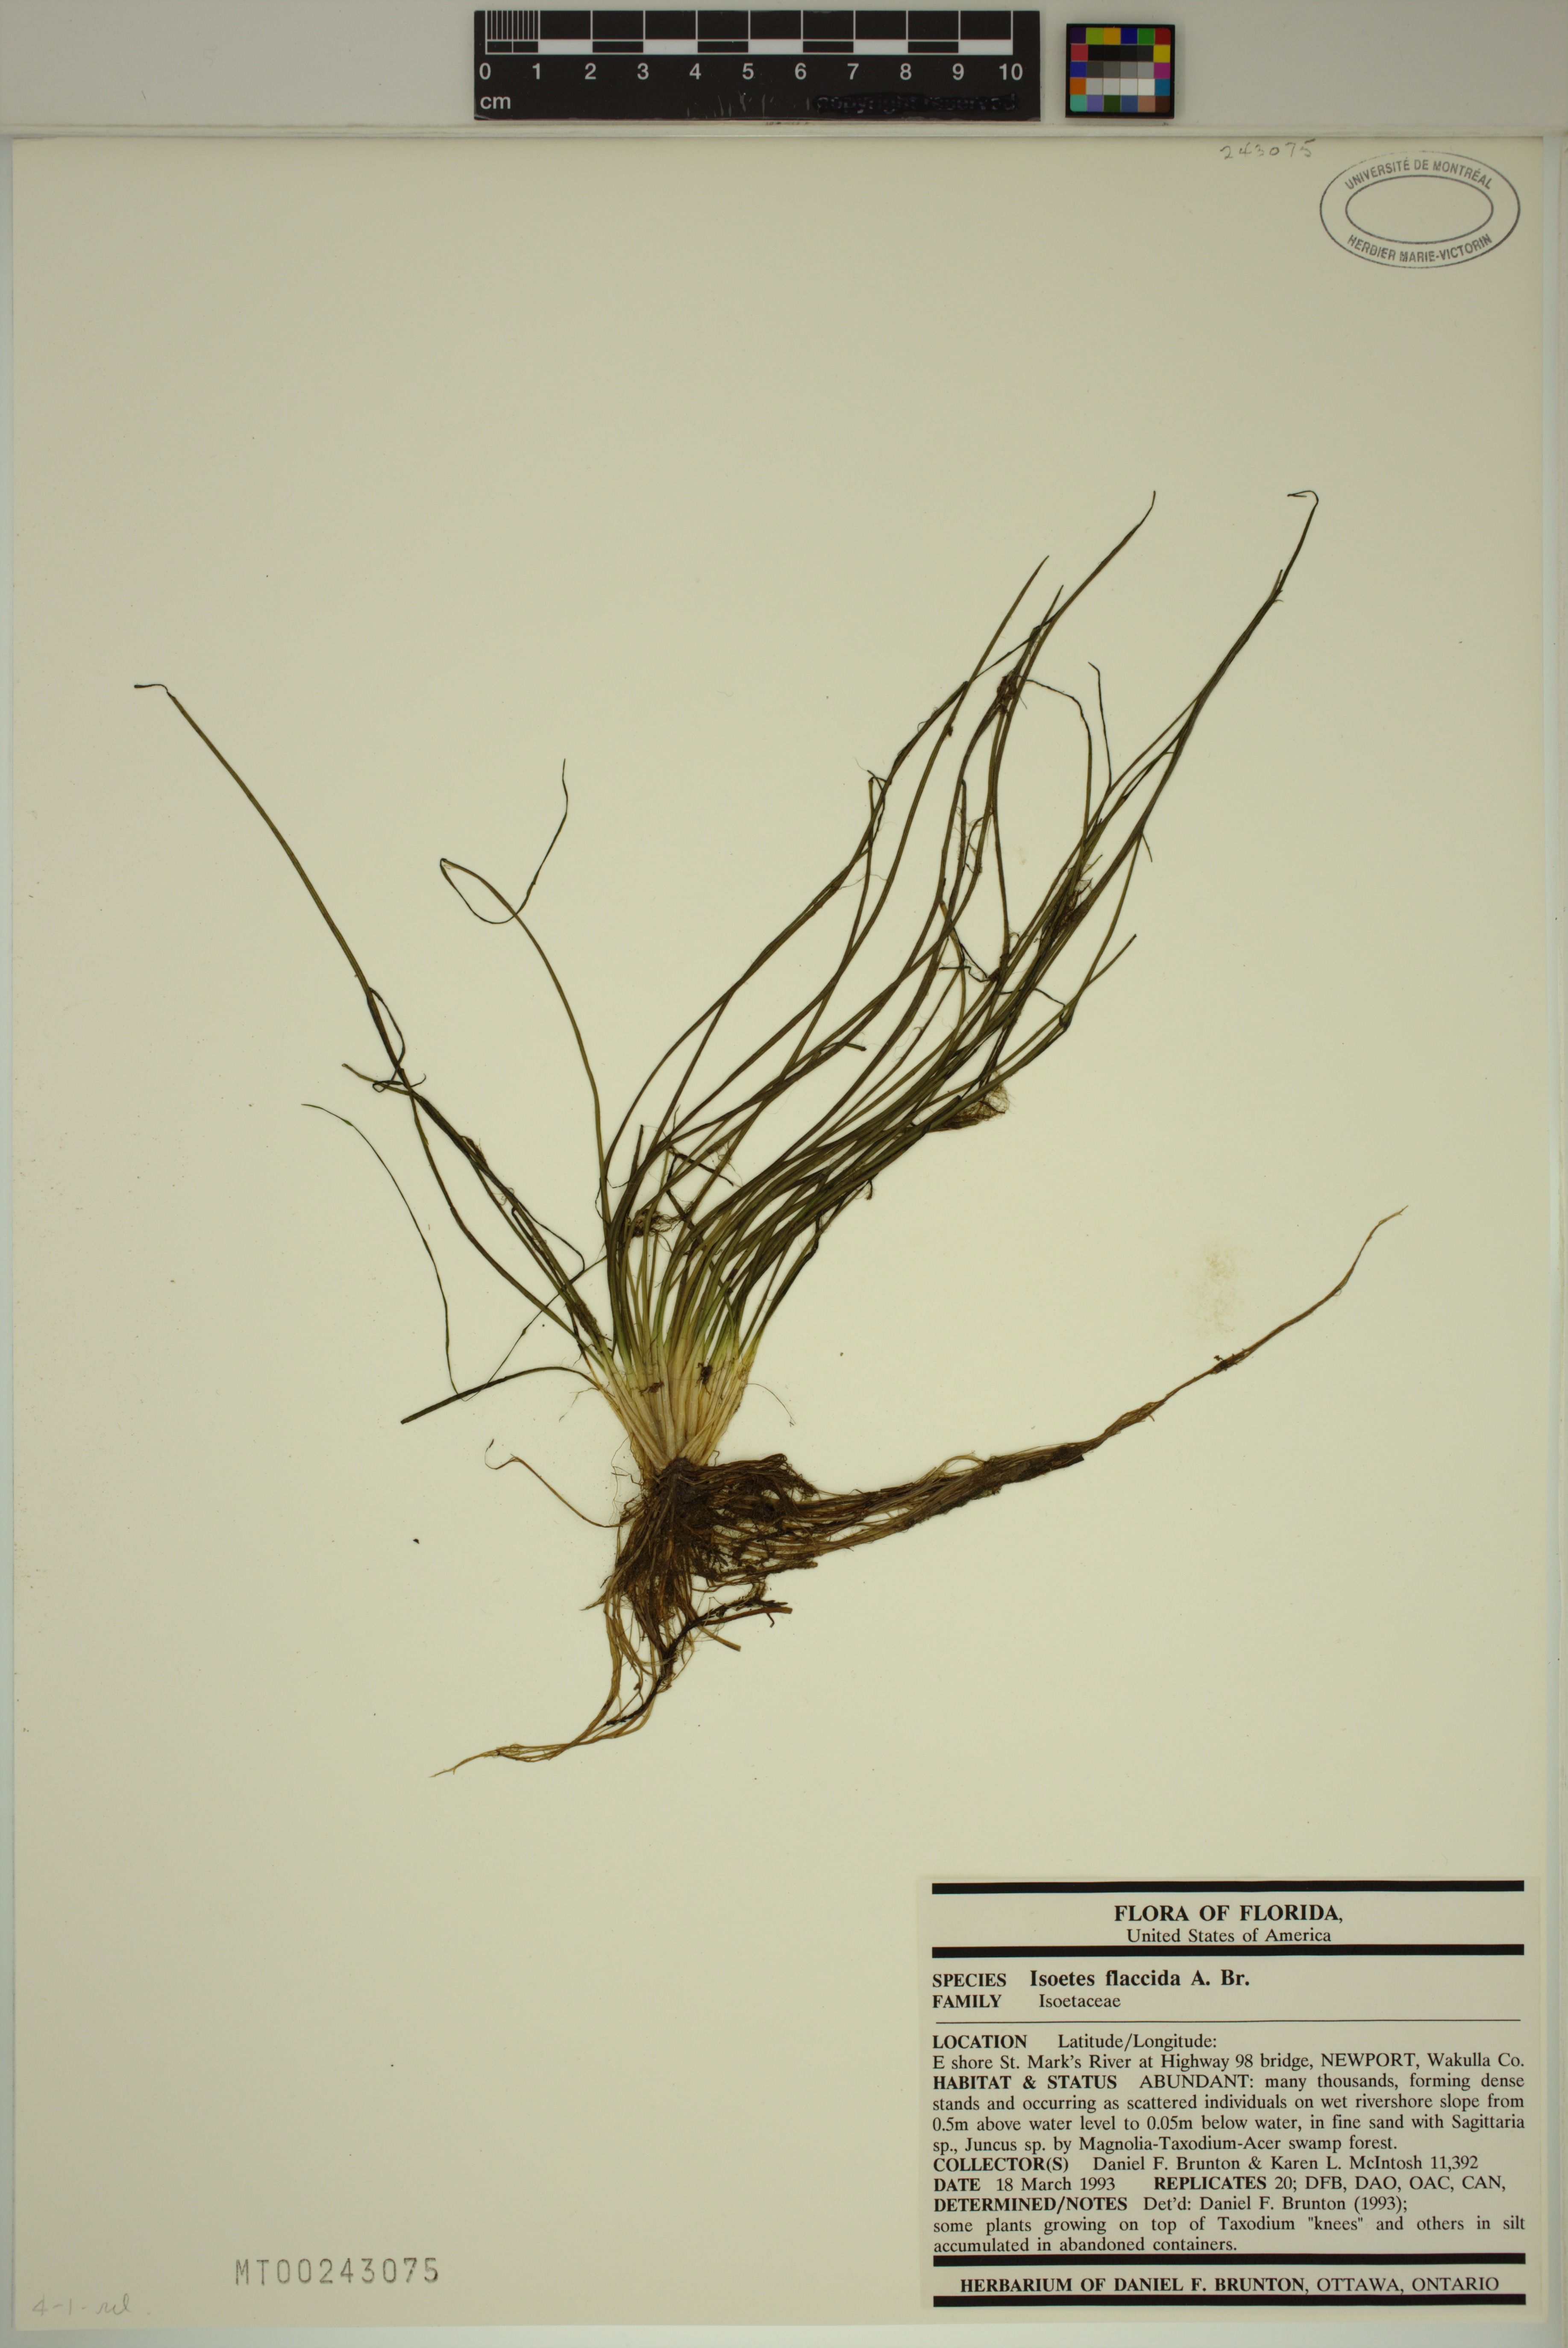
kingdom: Plantae
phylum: Tracheophyta
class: Lycopodiopsida
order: Isoetales
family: Isoetaceae
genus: Isoetes
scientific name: Isoetes flaccida
